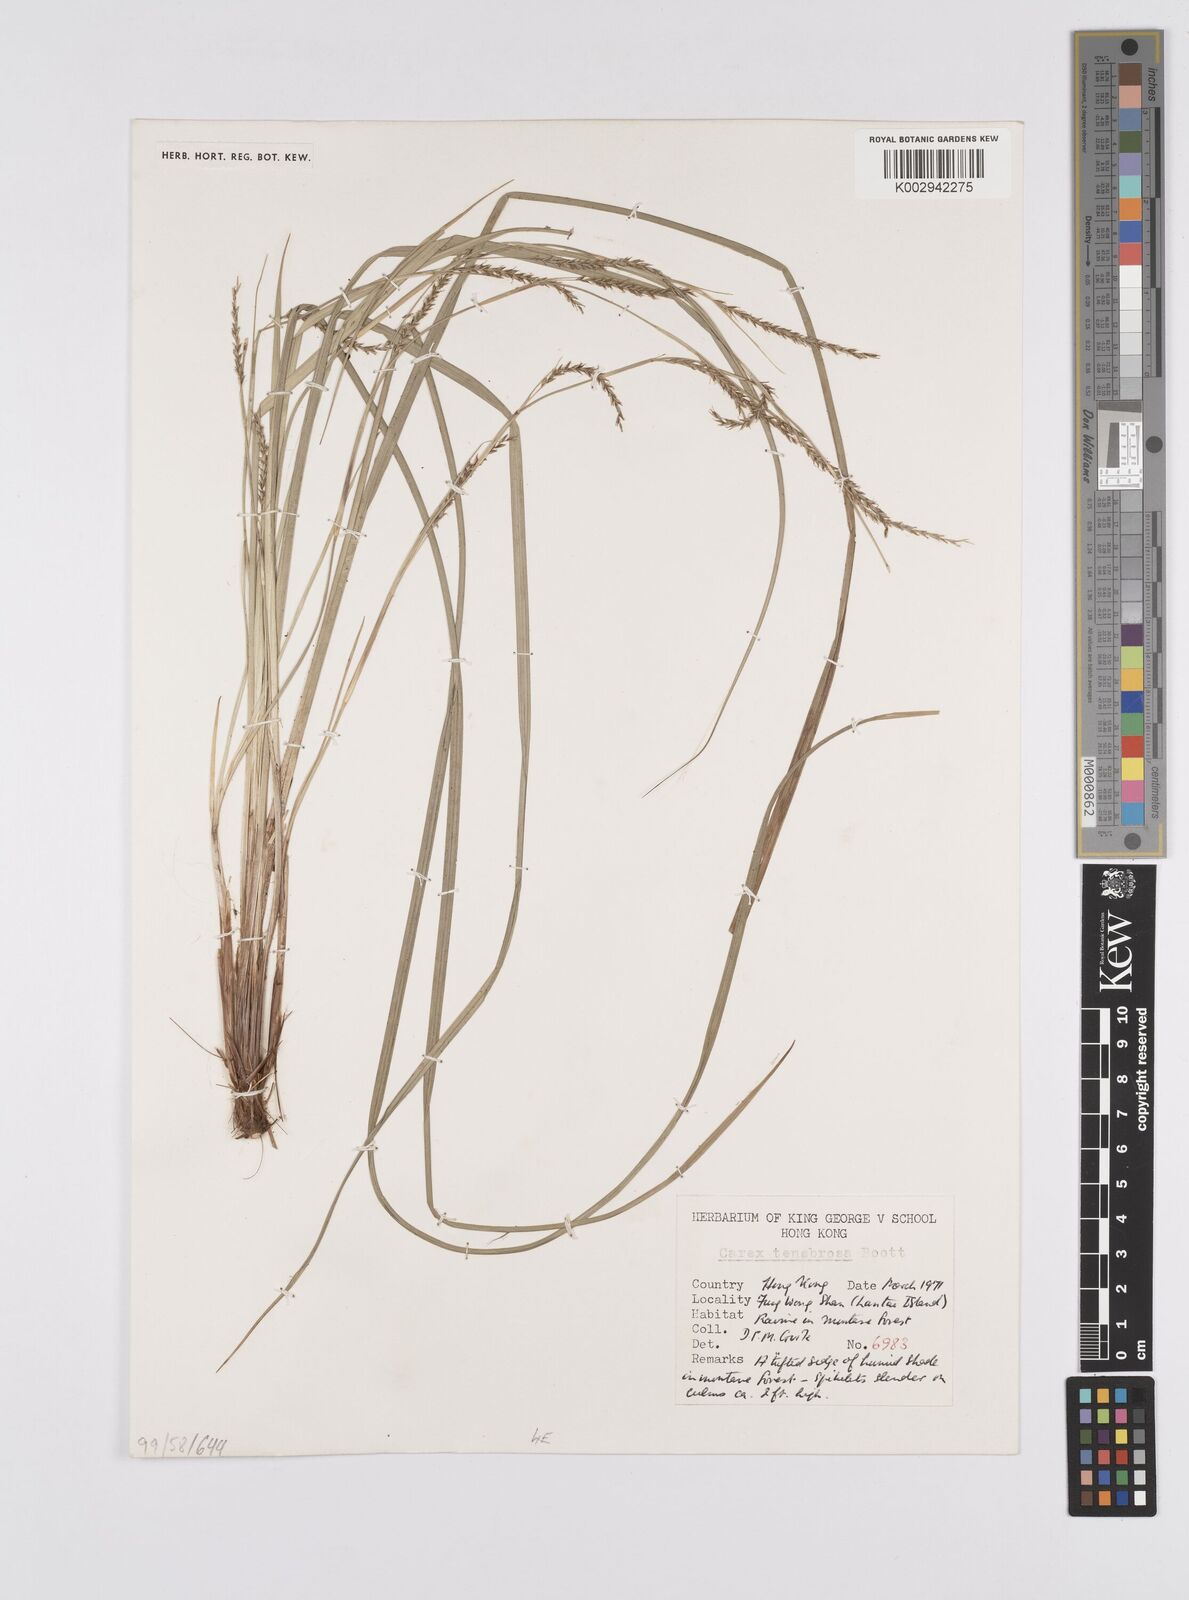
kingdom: Plantae
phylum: Tracheophyta
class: Liliopsida
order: Poales
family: Cyperaceae
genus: Carex
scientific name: Carex tenebrosa
